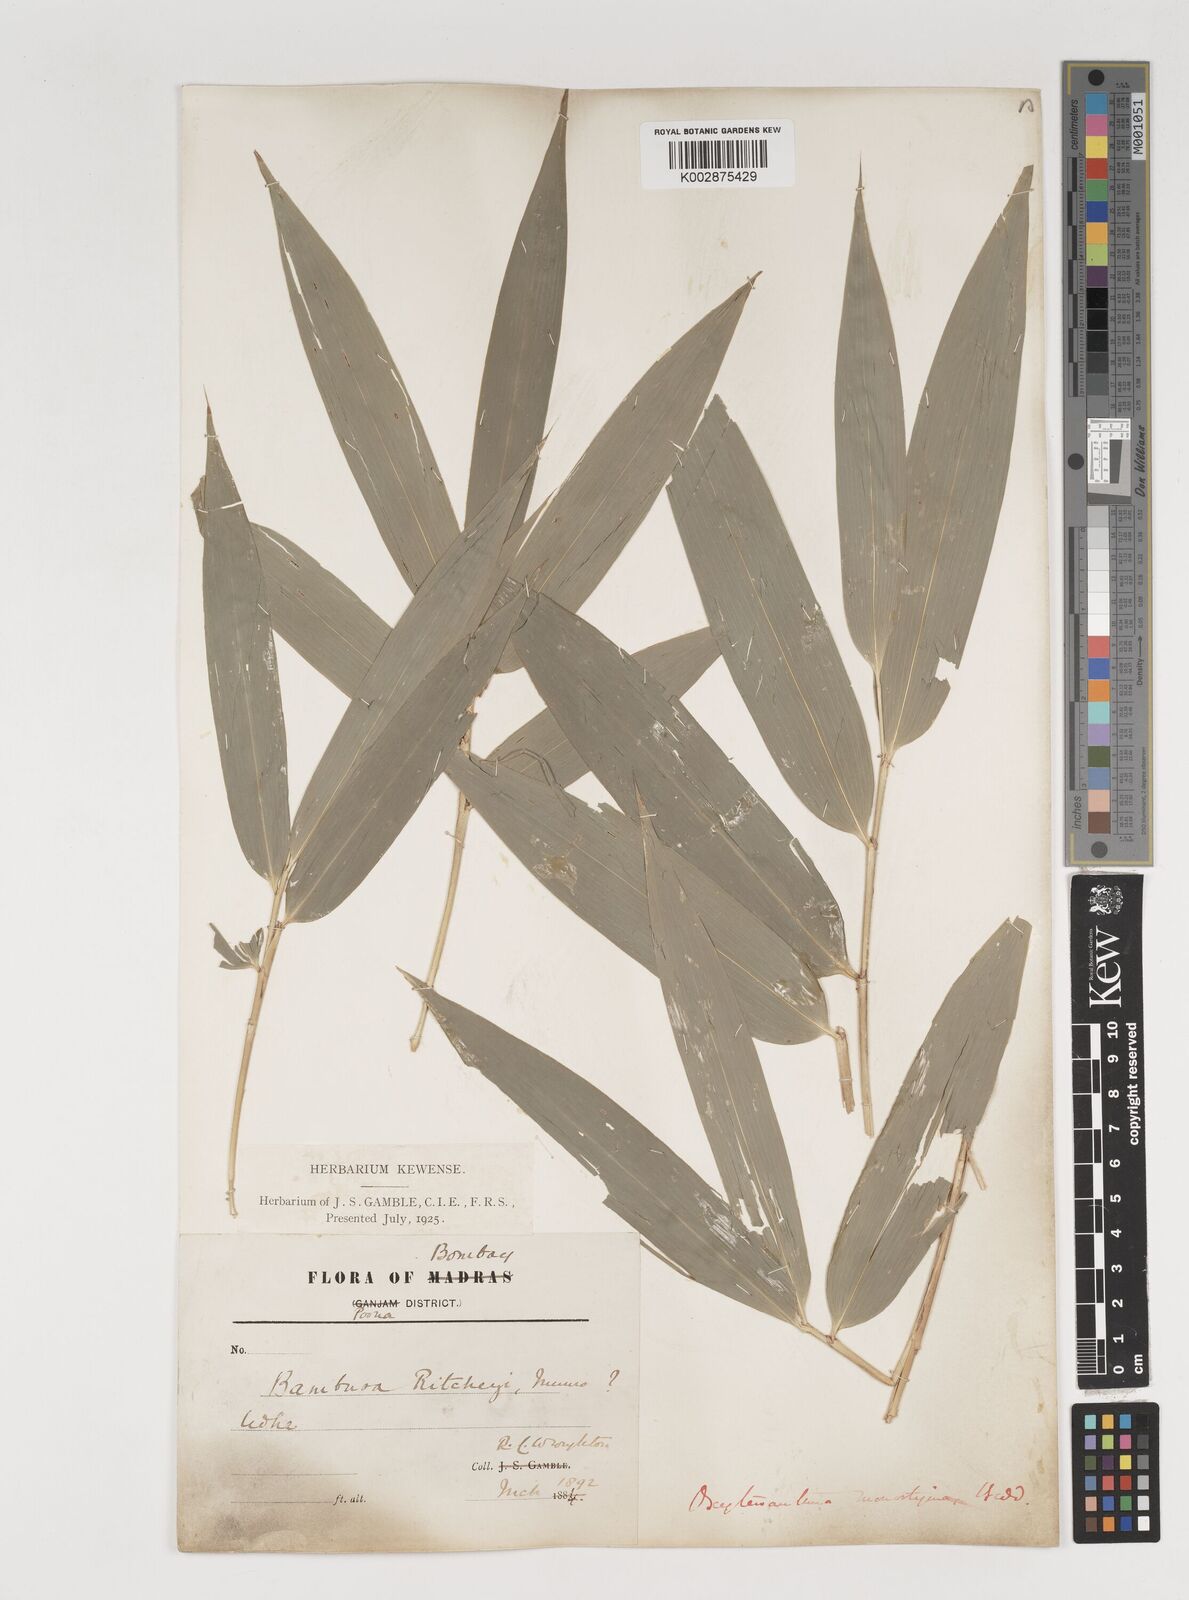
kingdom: Plantae
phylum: Tracheophyta
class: Liliopsida
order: Poales
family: Poaceae
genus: Dendrocalamus
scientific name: Dendrocalamus
